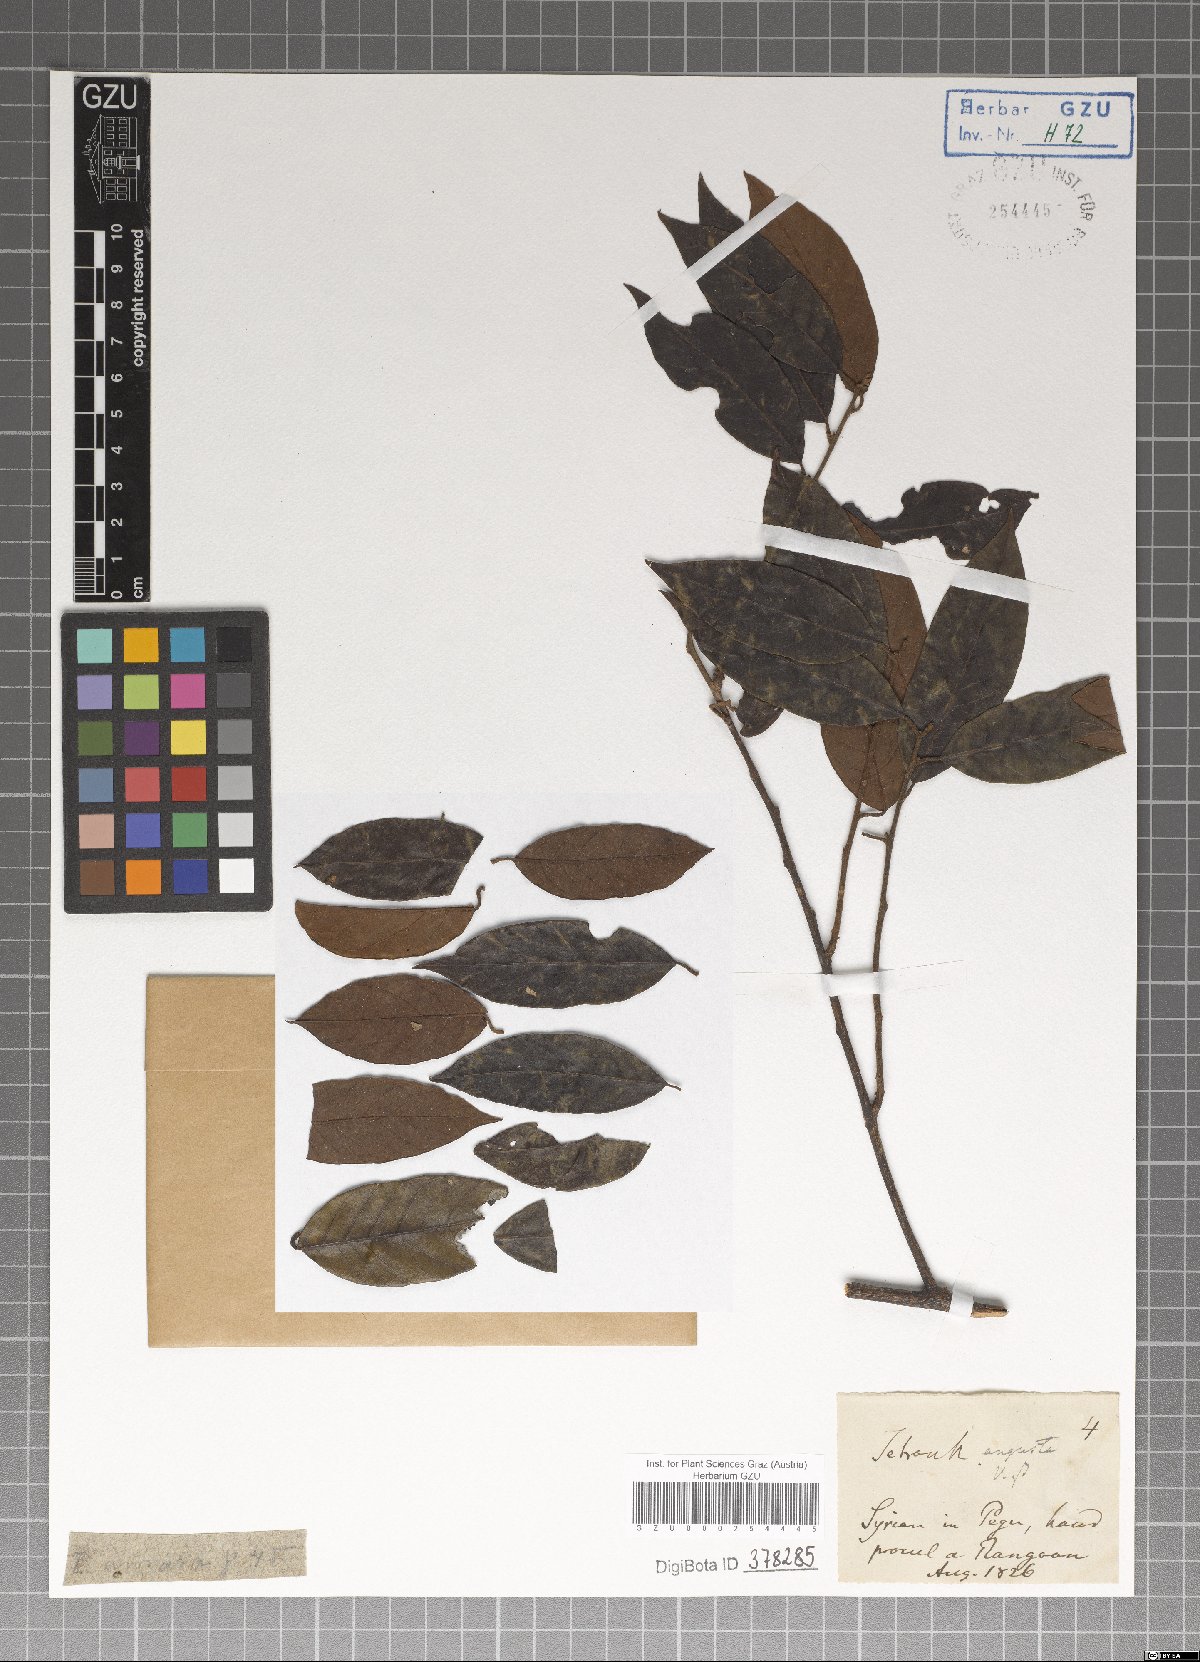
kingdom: Plantae
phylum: Tracheophyta
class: Magnoliopsida
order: Laurales
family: Lauraceae
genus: Litsea
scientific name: Litsea umbellata
